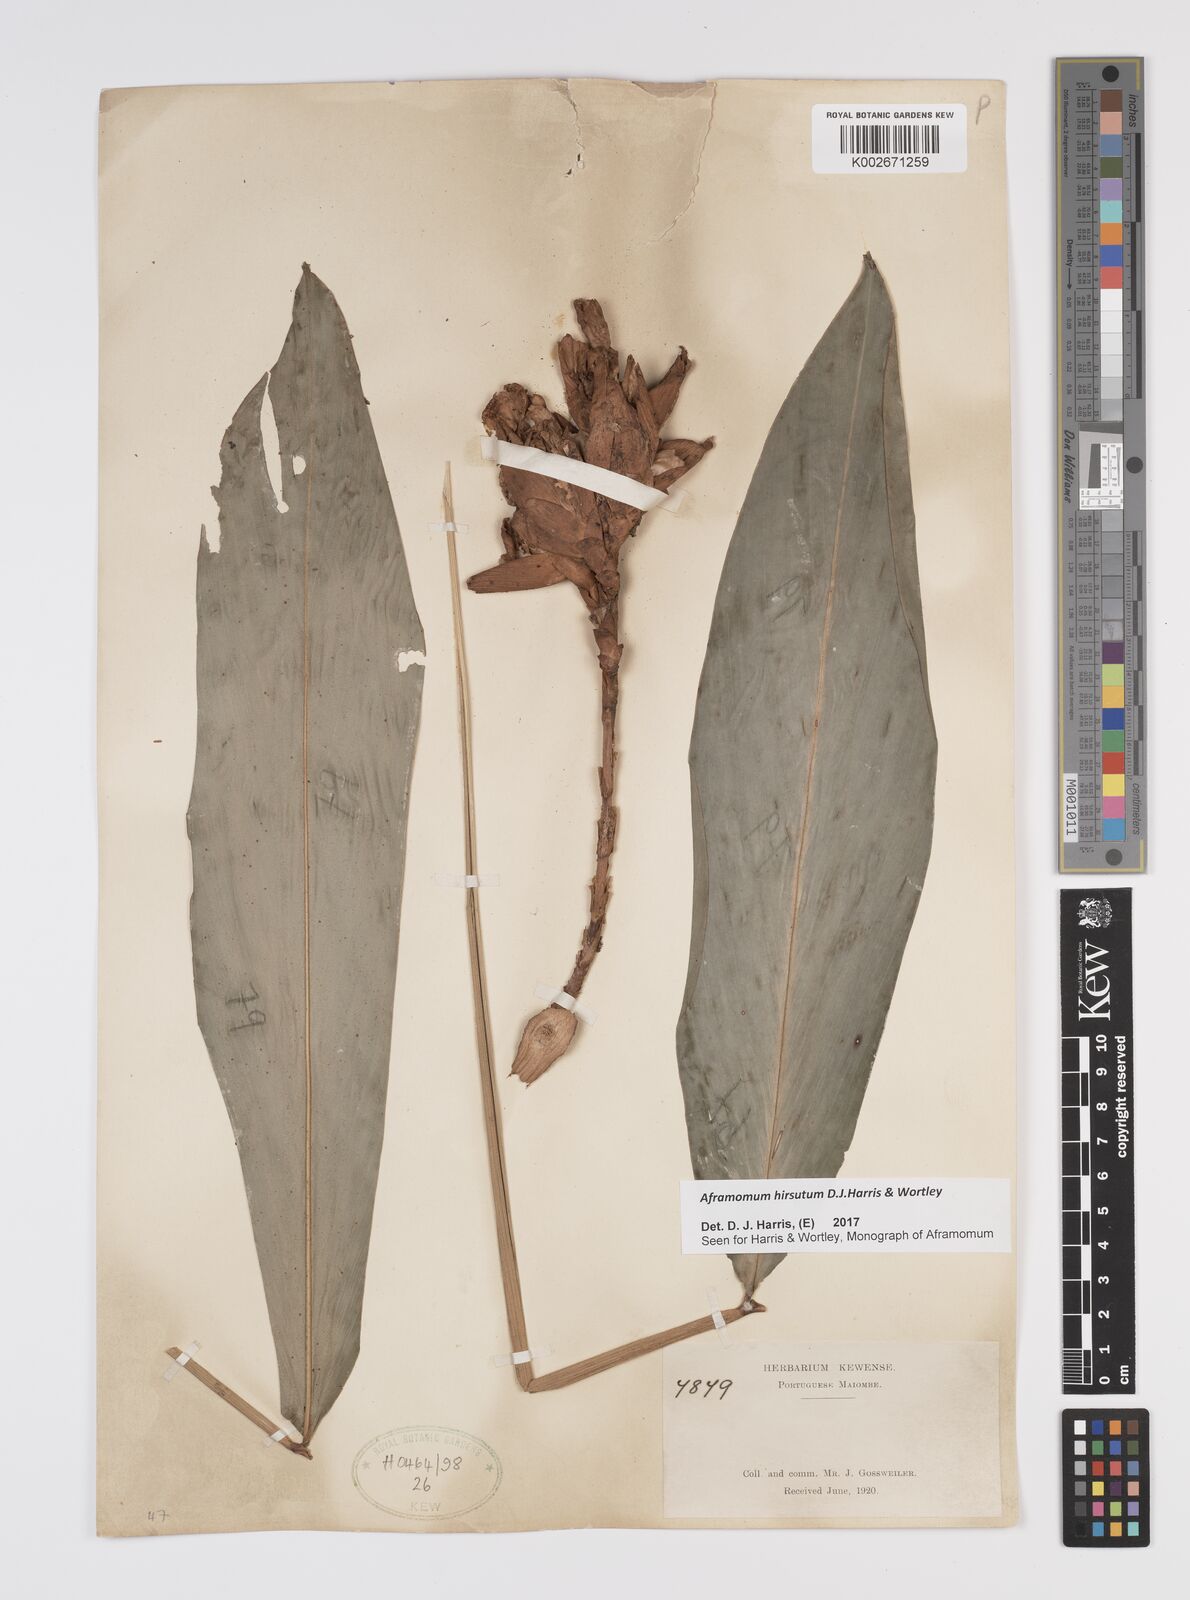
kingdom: Plantae
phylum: Tracheophyta
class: Liliopsida
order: Zingiberales
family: Zingiberaceae
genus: Aframomum
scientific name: Aframomum hirsutum
